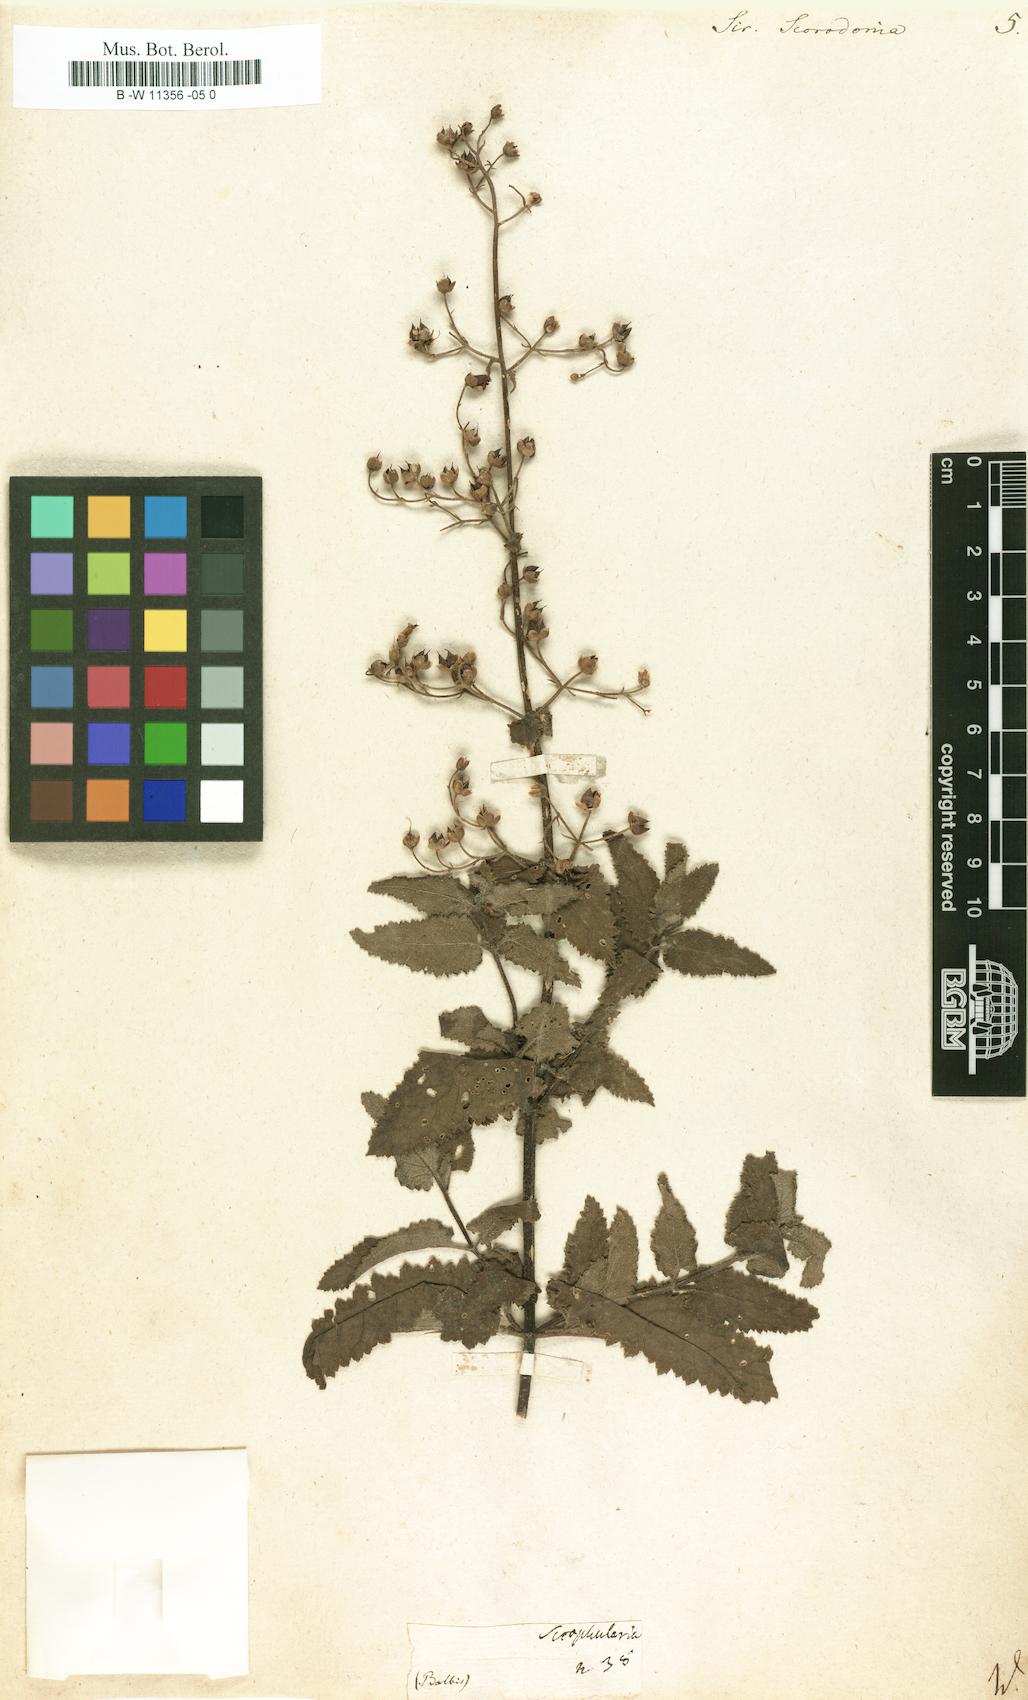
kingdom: Plantae
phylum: Tracheophyta
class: Magnoliopsida
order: Lamiales
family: Scrophulariaceae
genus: Scrophularia
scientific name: Scrophularia scorodonia
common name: Balm-leaved figwort
